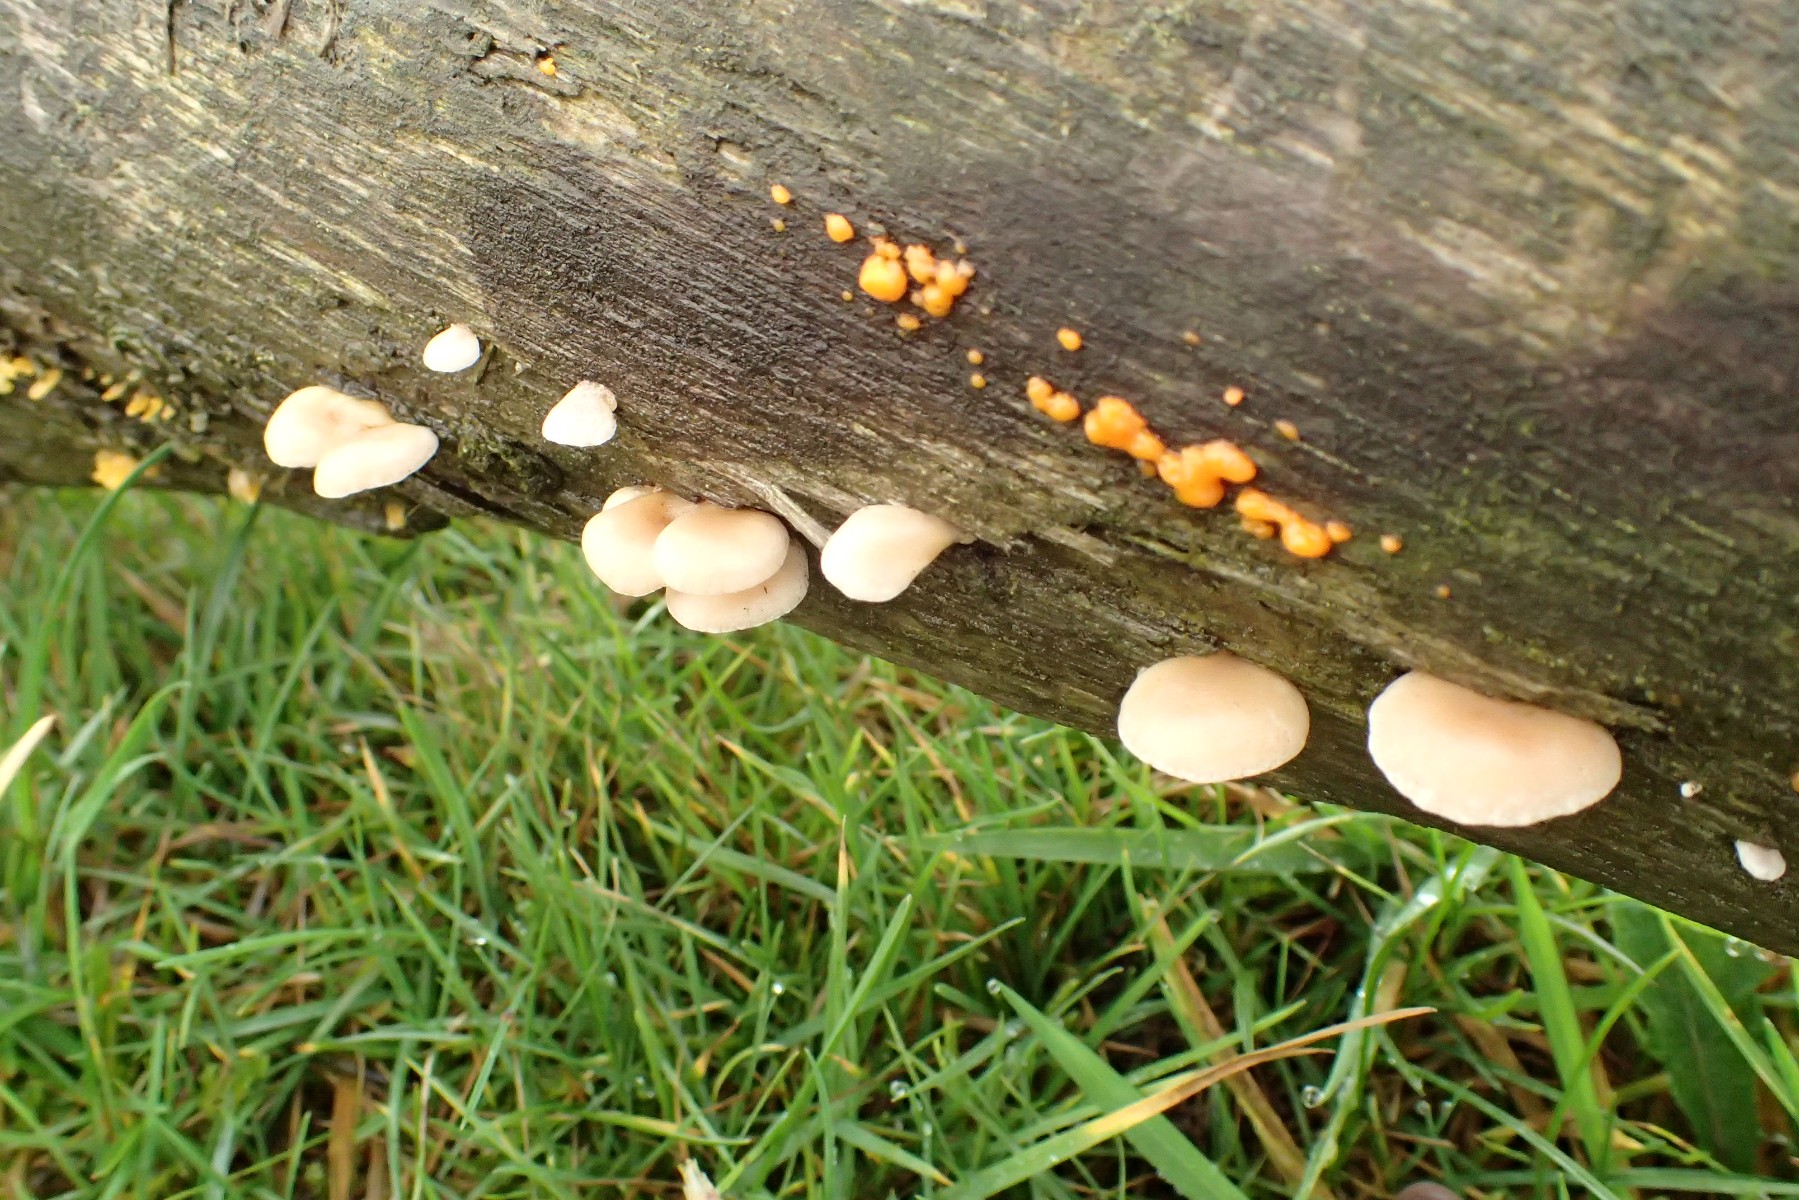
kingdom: Fungi
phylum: Basidiomycota
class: Agaricomycetes
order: Agaricales
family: Crepidotaceae
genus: Crepidotus
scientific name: Crepidotus mollis
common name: blød muslingesvamp
